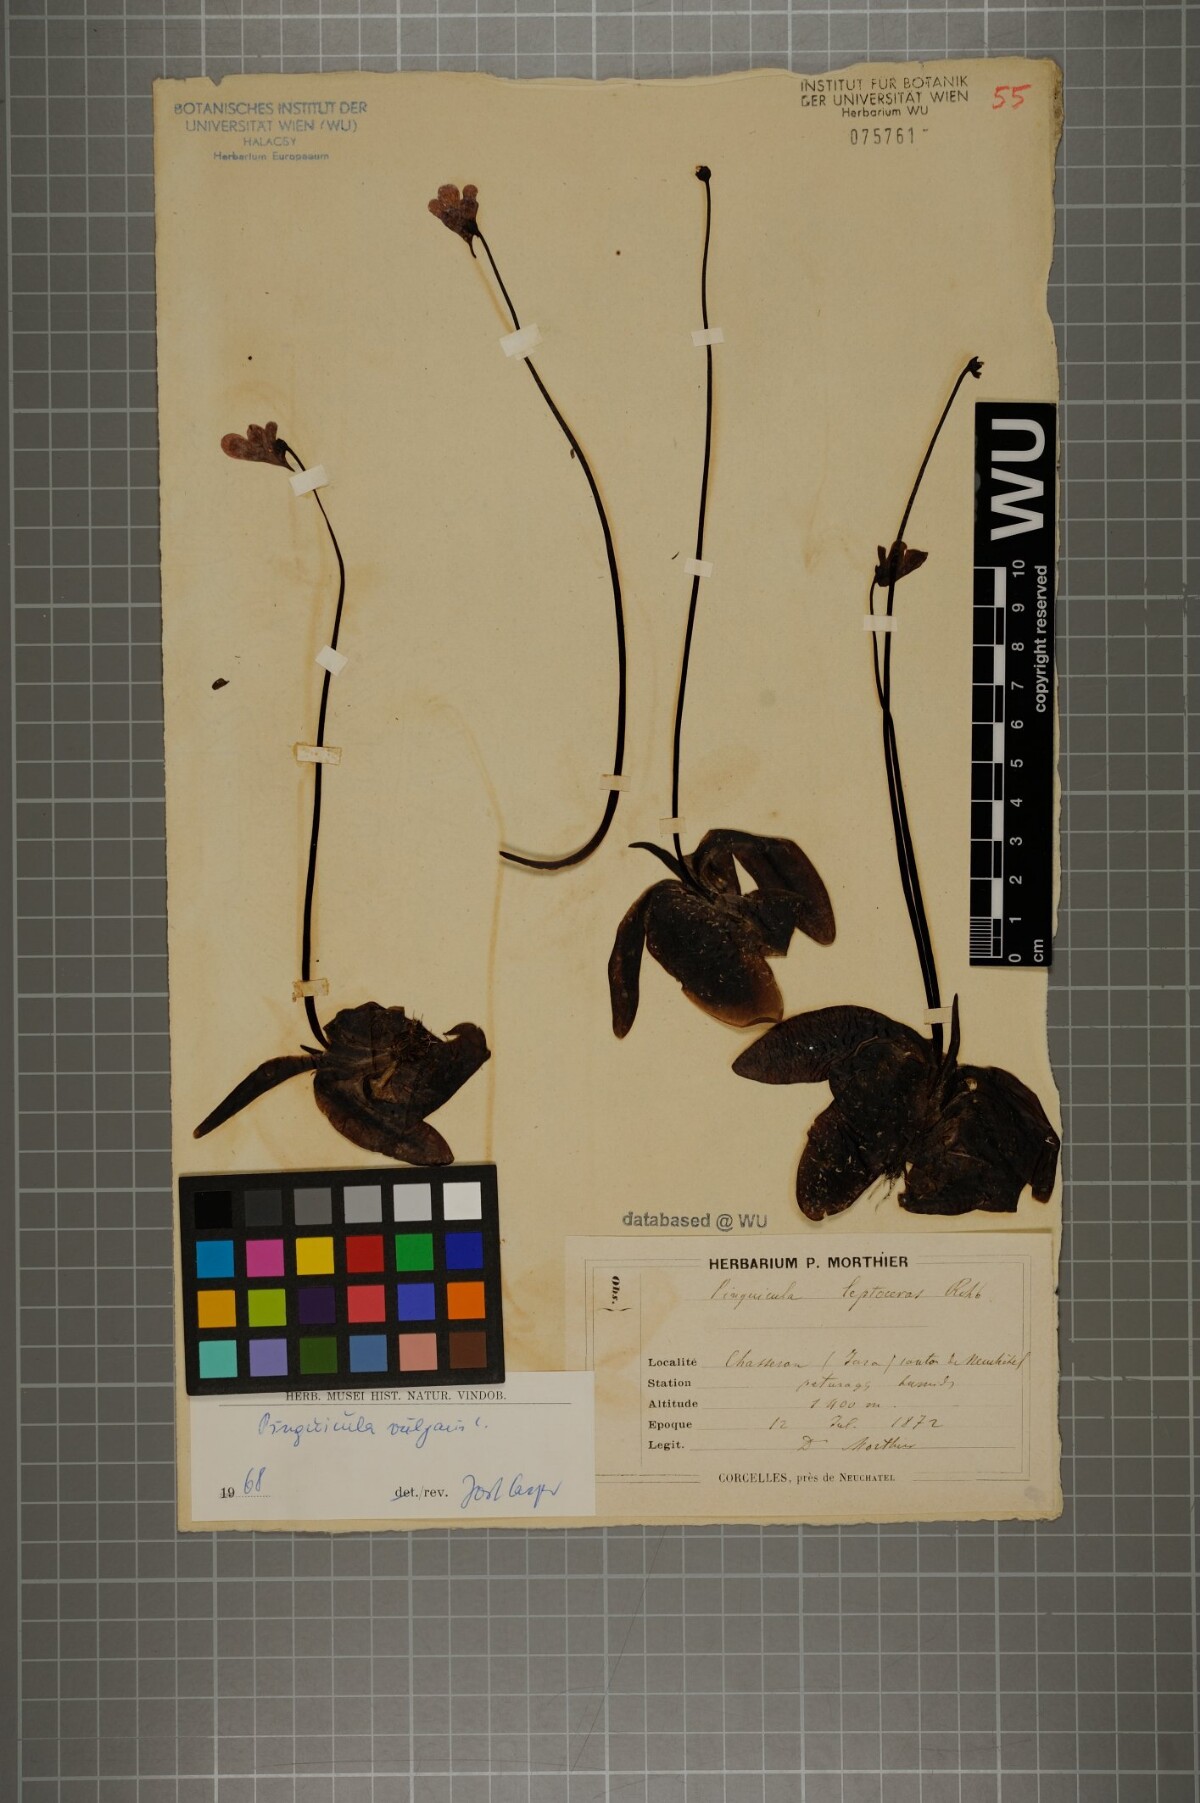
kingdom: Plantae
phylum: Tracheophyta
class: Magnoliopsida
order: Lamiales
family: Lentibulariaceae
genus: Pinguicula
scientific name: Pinguicula vulgaris
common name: Common butterwort
